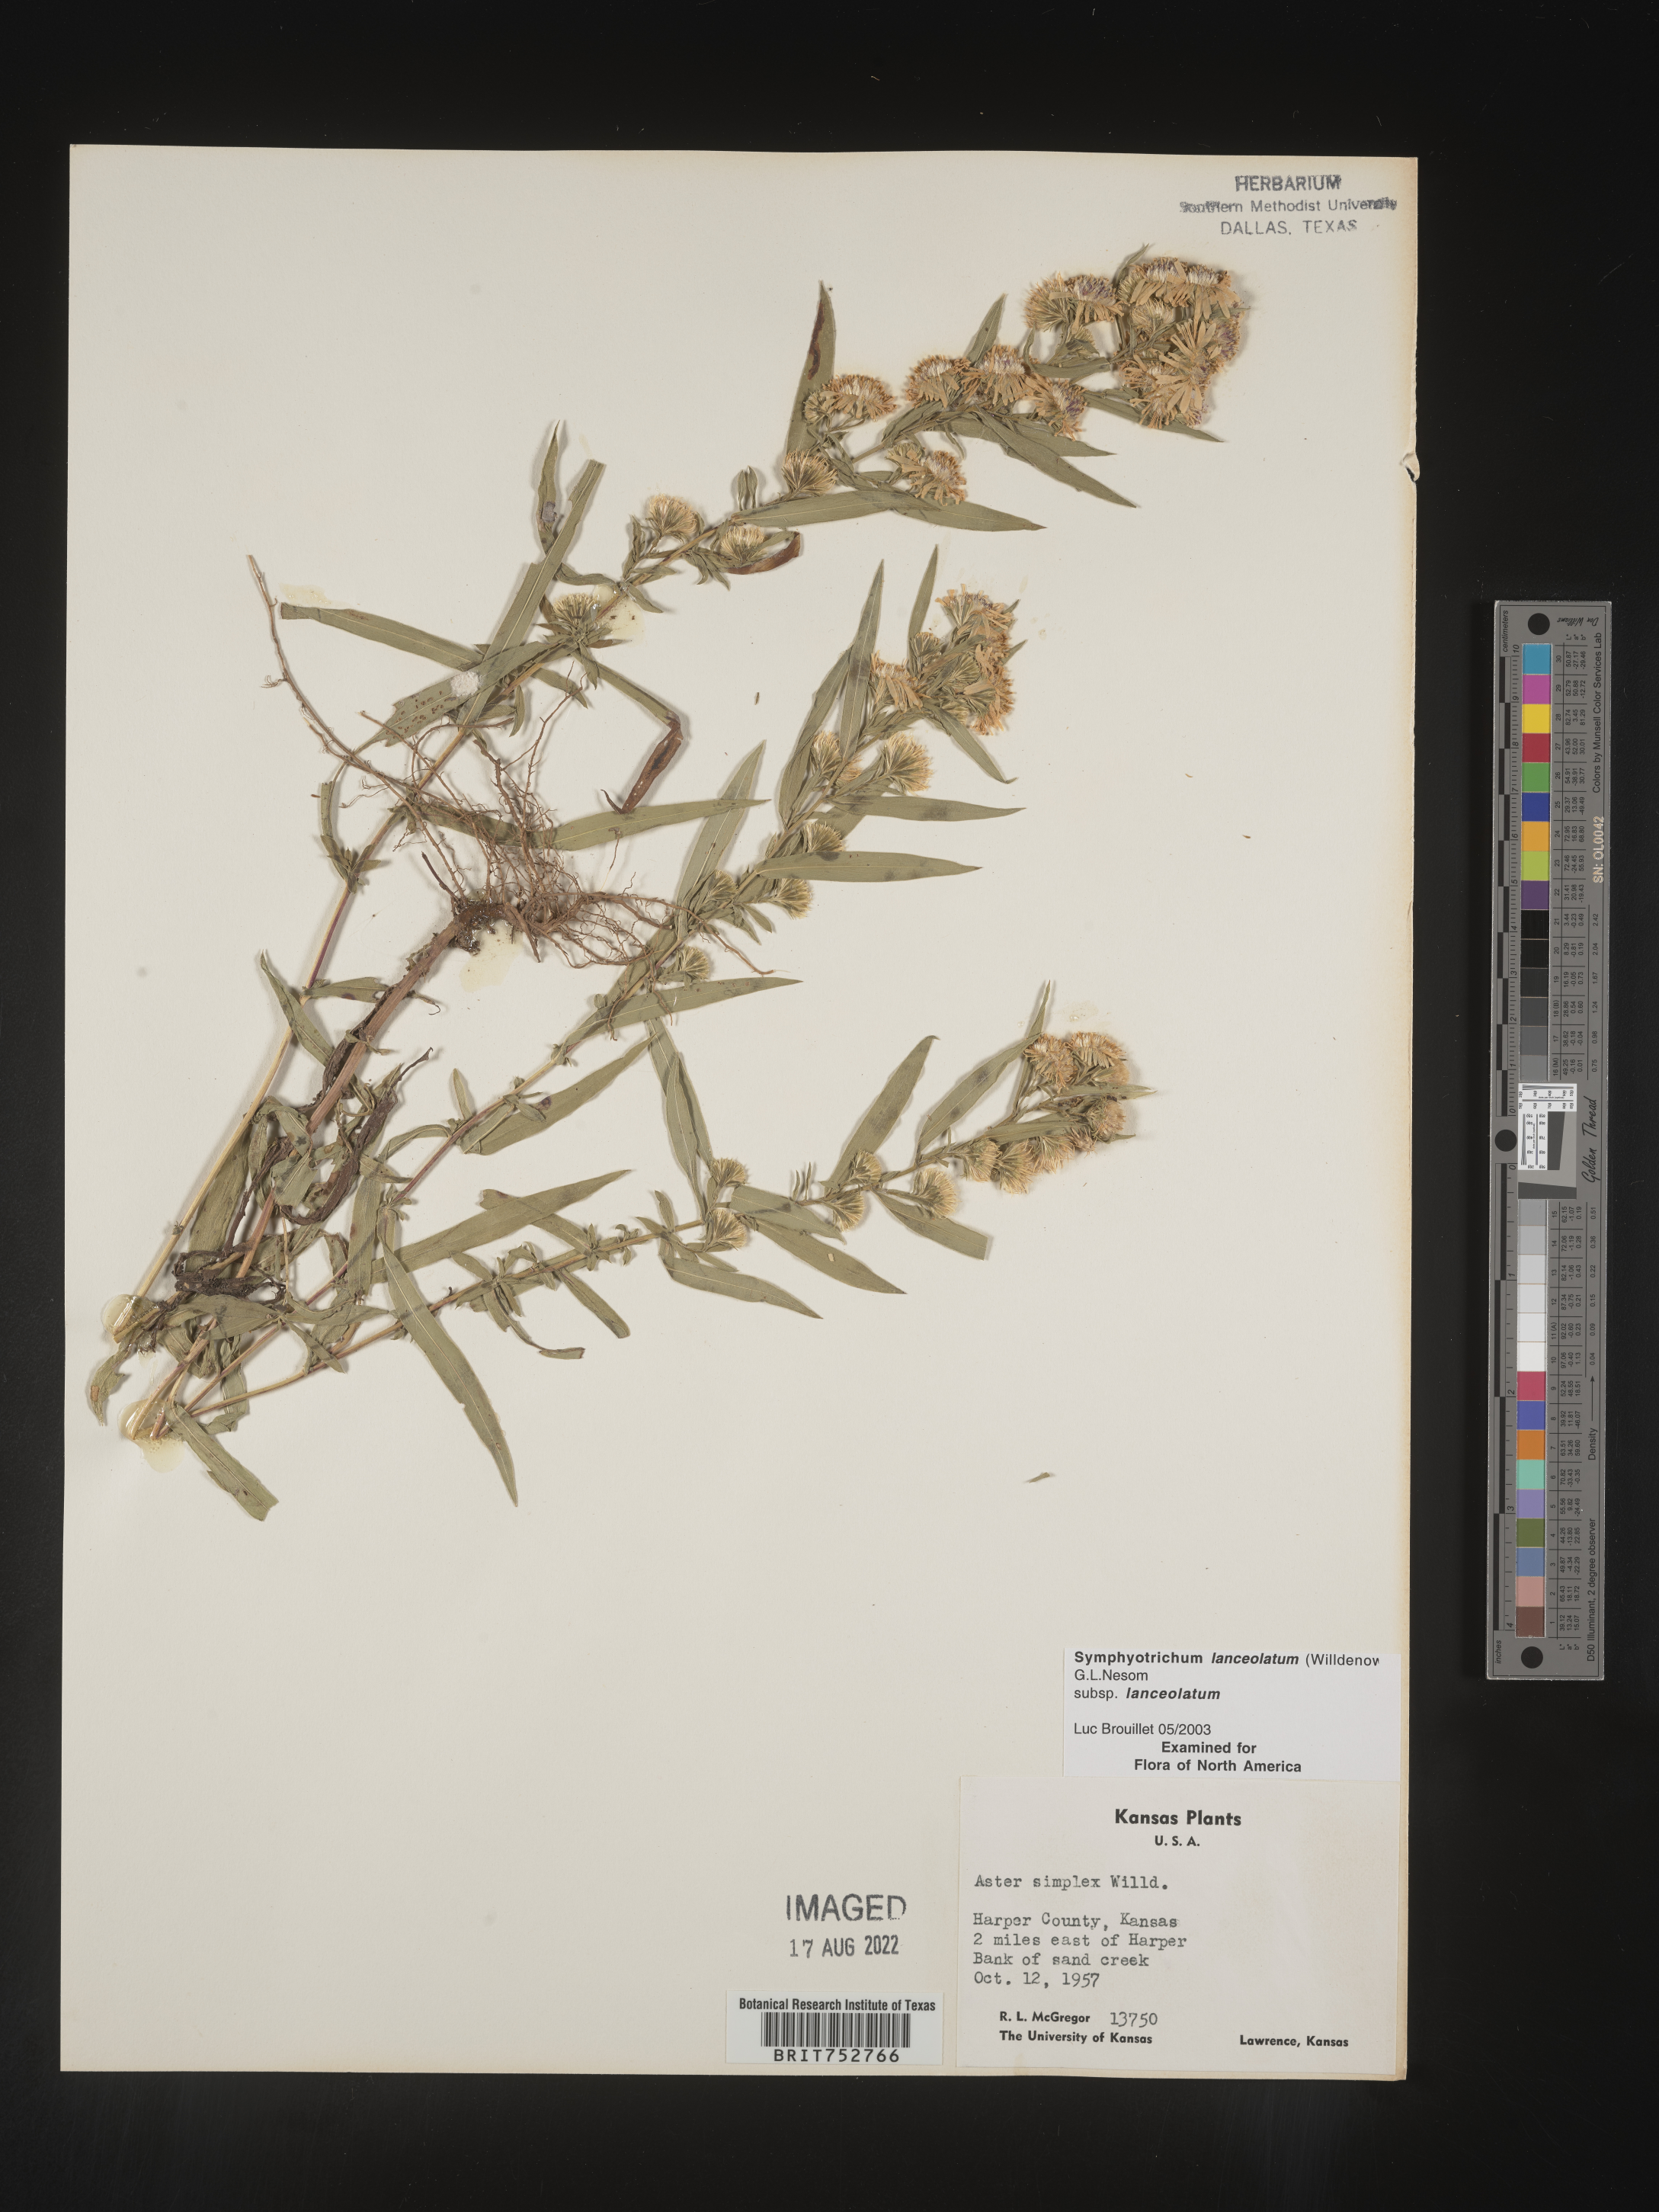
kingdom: Plantae
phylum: Tracheophyta
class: Magnoliopsida
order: Asterales
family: Asteraceae
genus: Symphyotrichum
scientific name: Symphyotrichum lanceolatum
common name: Panicled aster
